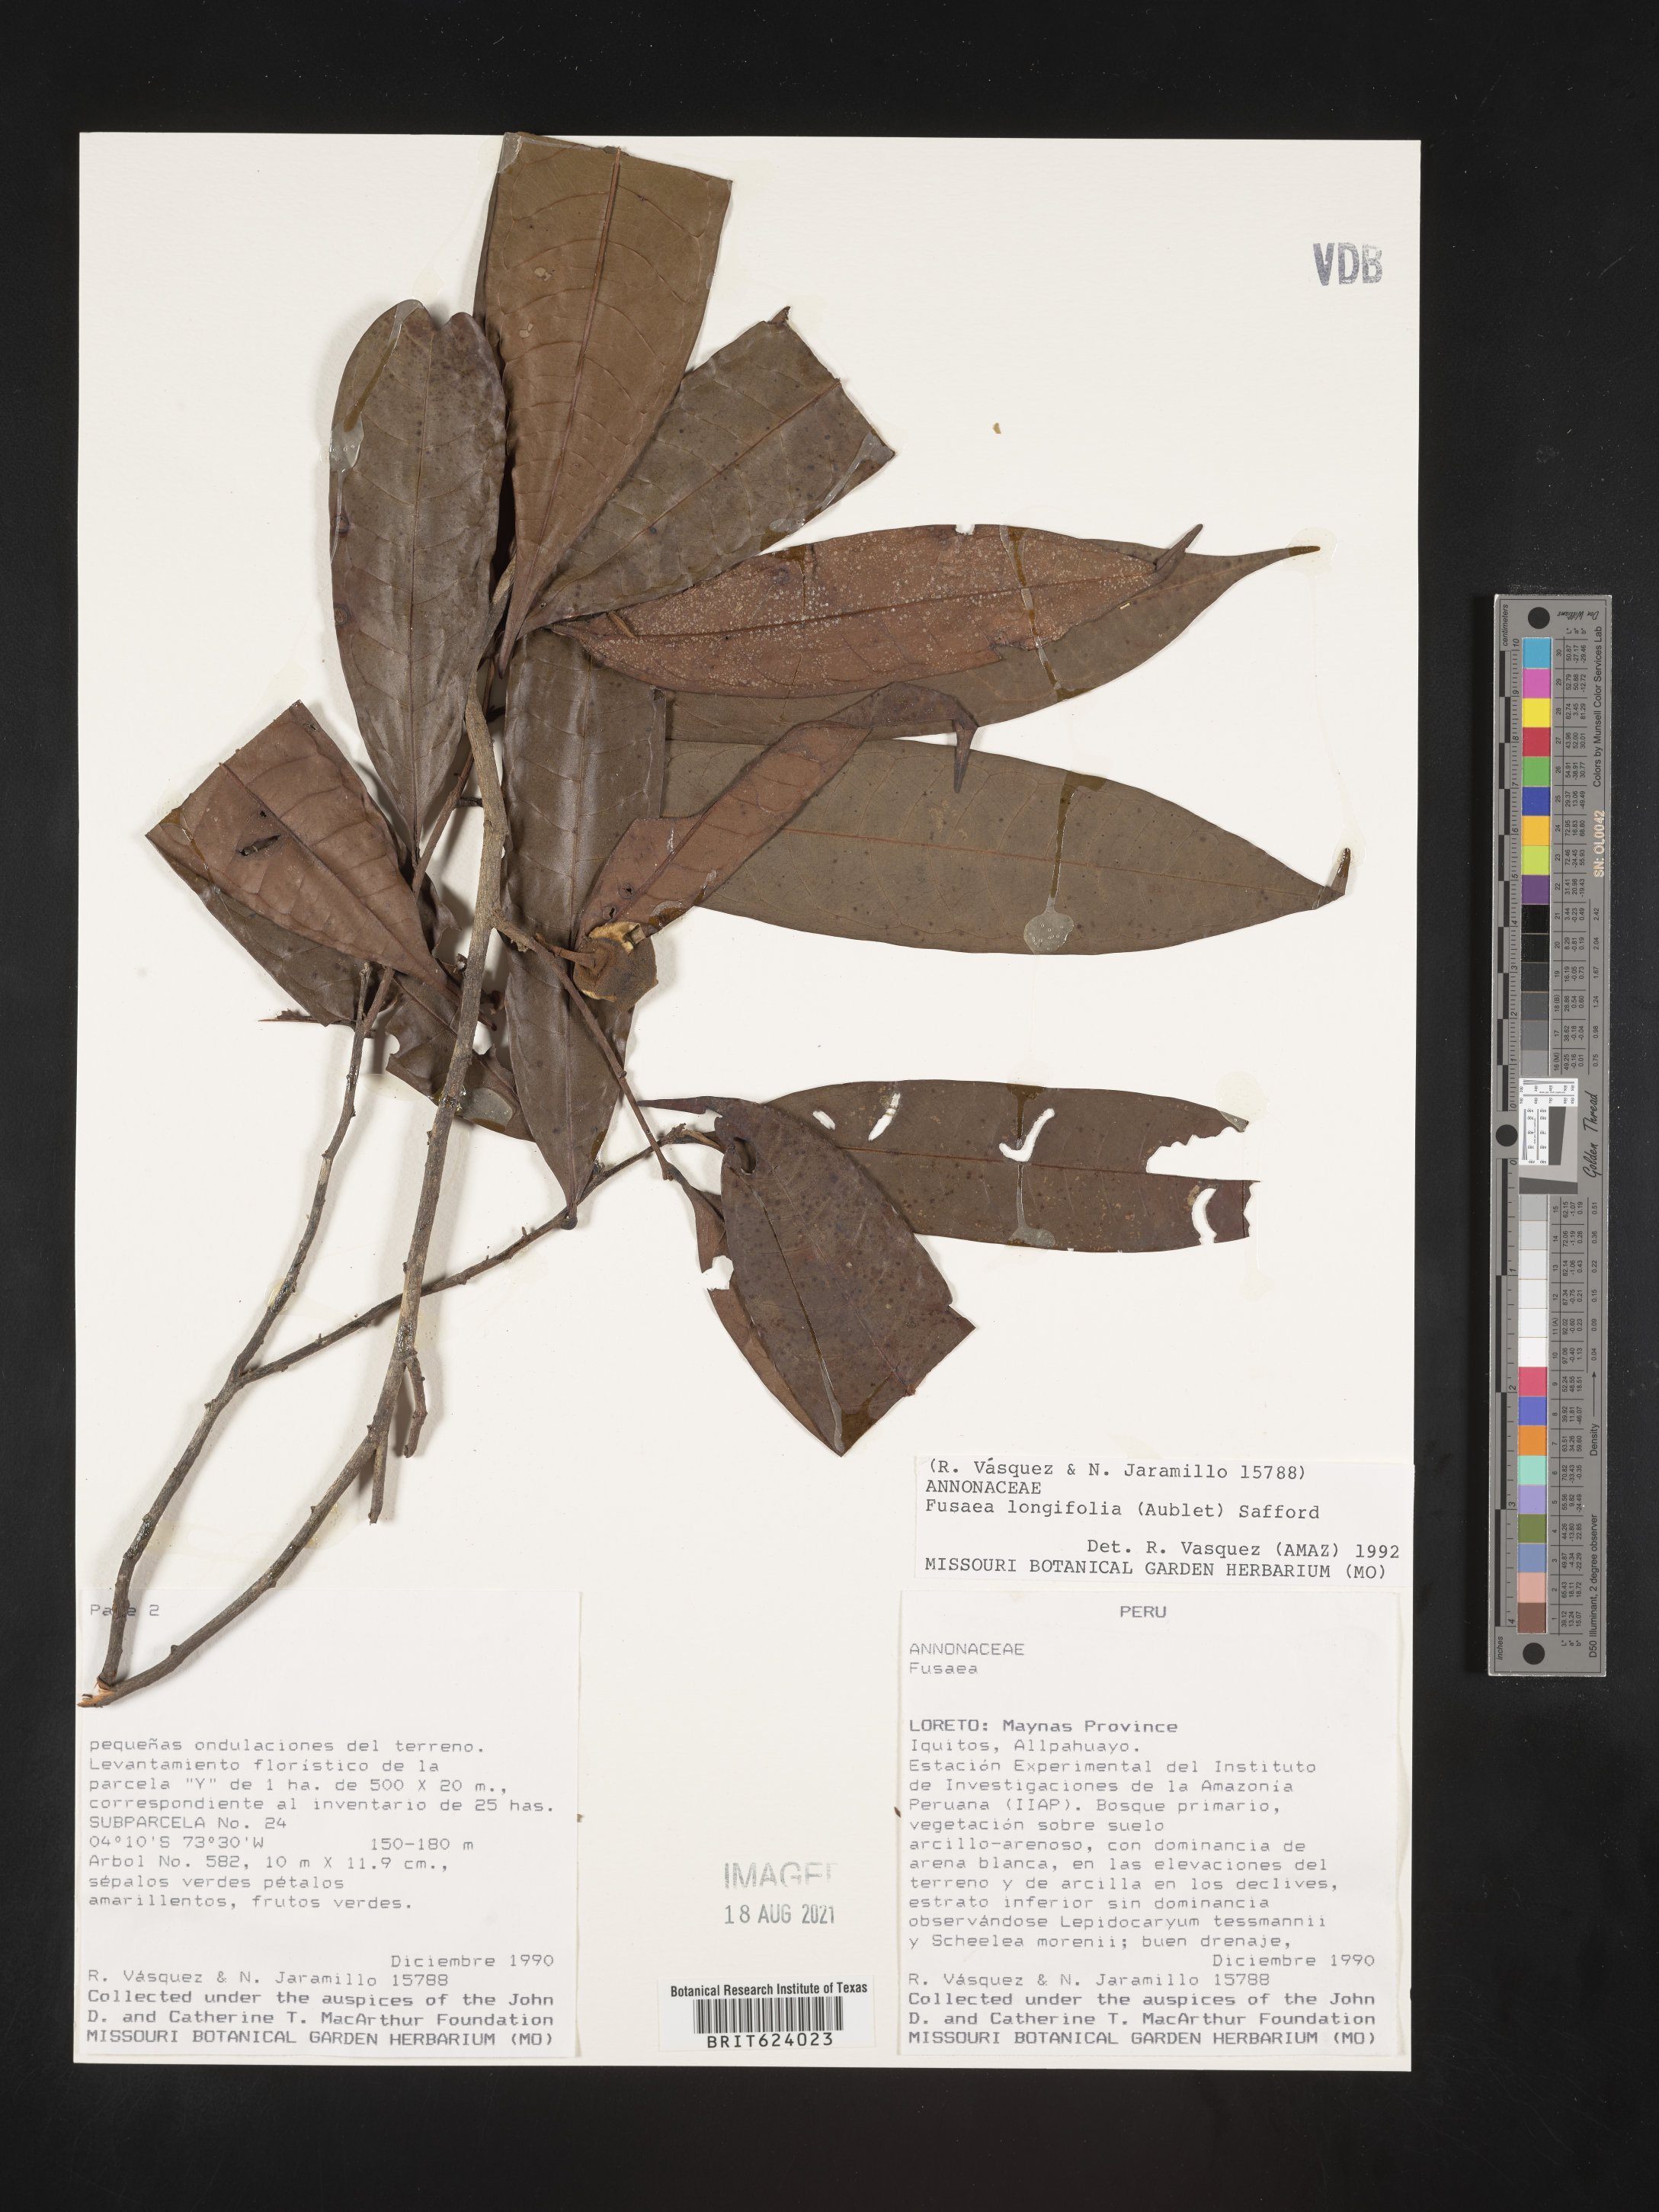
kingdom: Plantae
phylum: Tracheophyta
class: Magnoliopsida
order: Magnoliales
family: Annonaceae
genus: Fusaea
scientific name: Fusaea longifolia
